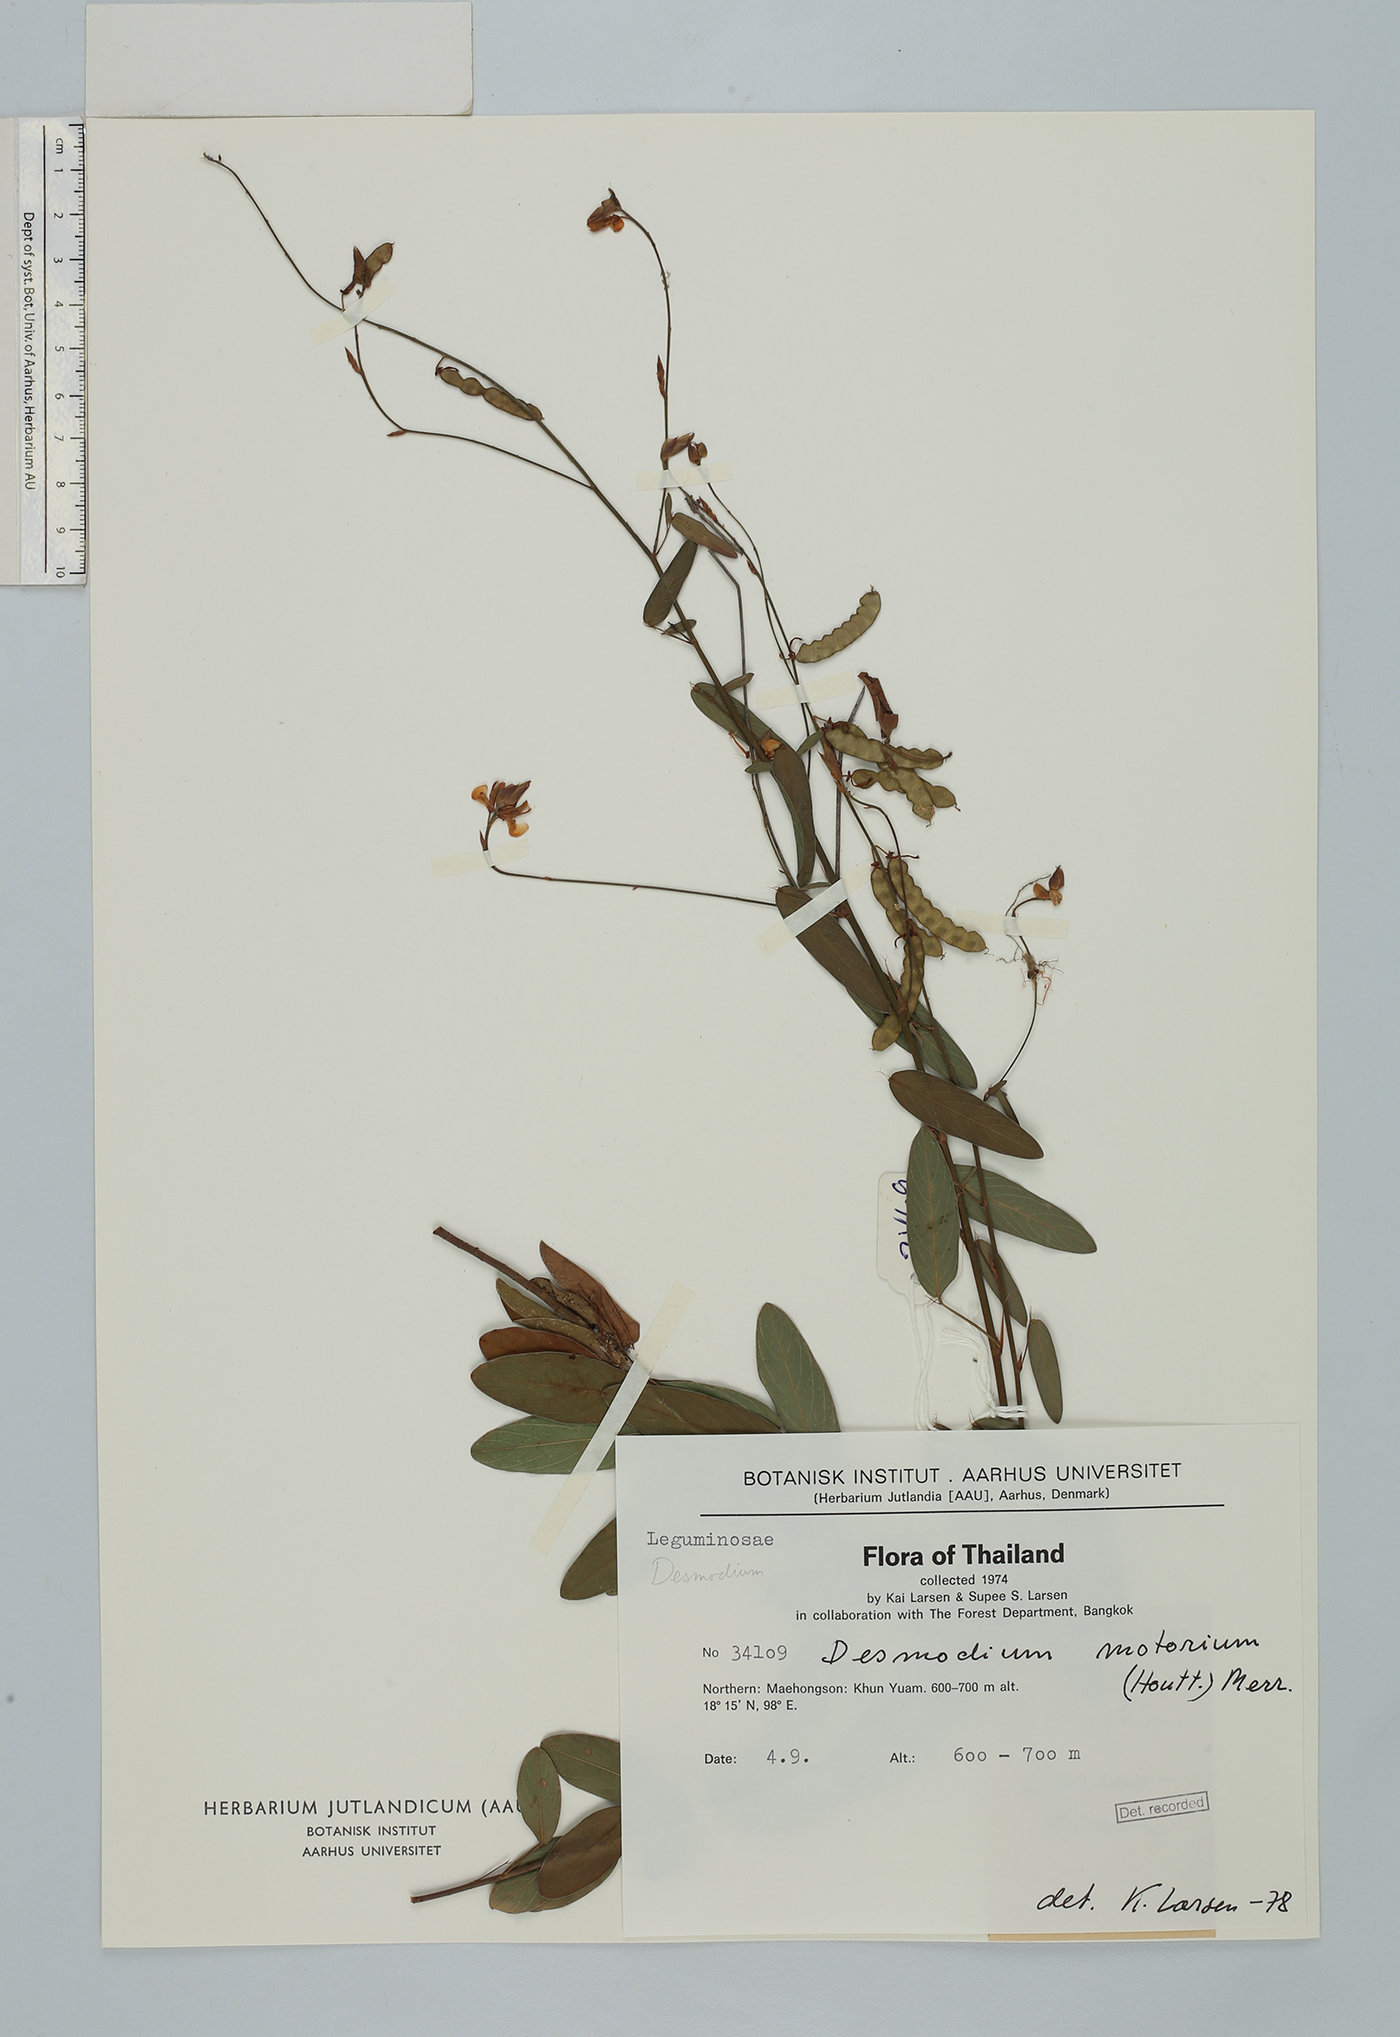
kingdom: Plantae
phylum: Tracheophyta
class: Magnoliopsida
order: Fabales
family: Fabaceae
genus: Codariocalyx
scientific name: Codariocalyx motorius
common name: Telegraph-plant
